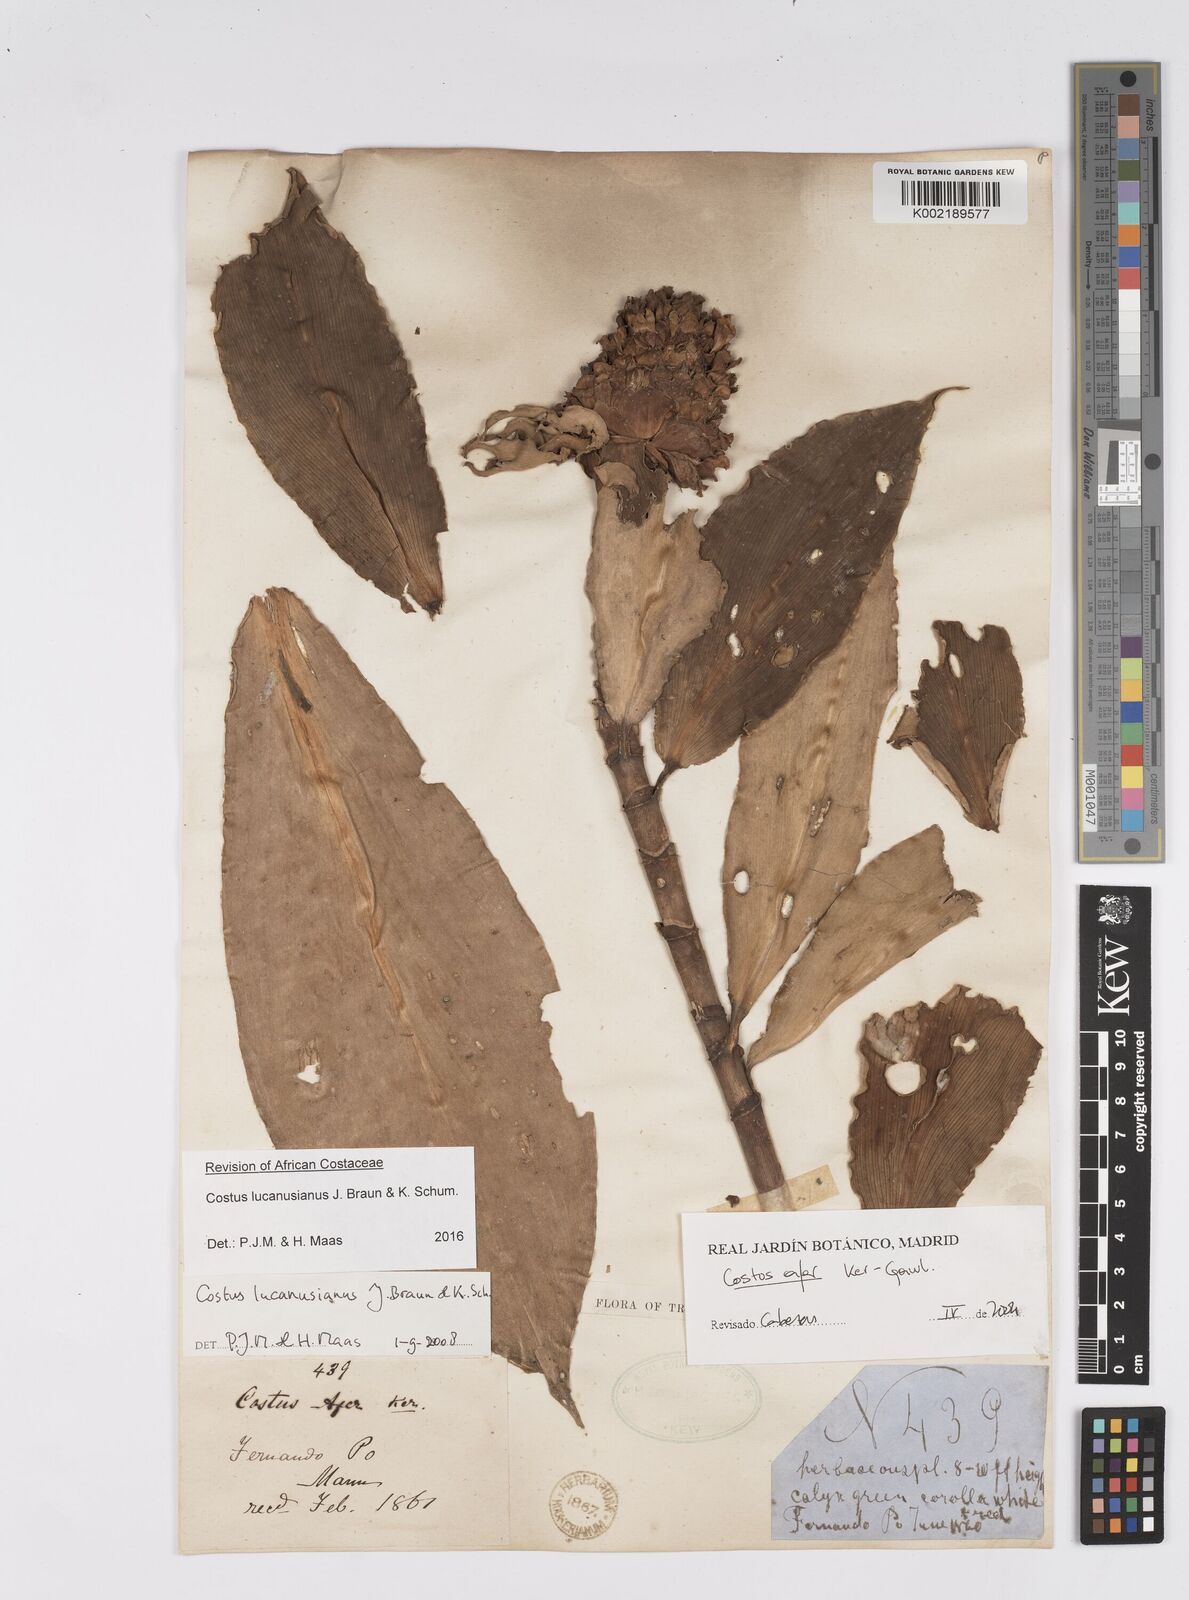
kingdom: Plantae
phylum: Tracheophyta
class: Liliopsida
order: Zingiberales
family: Costaceae
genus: Costus
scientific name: Costus lucanusianus
